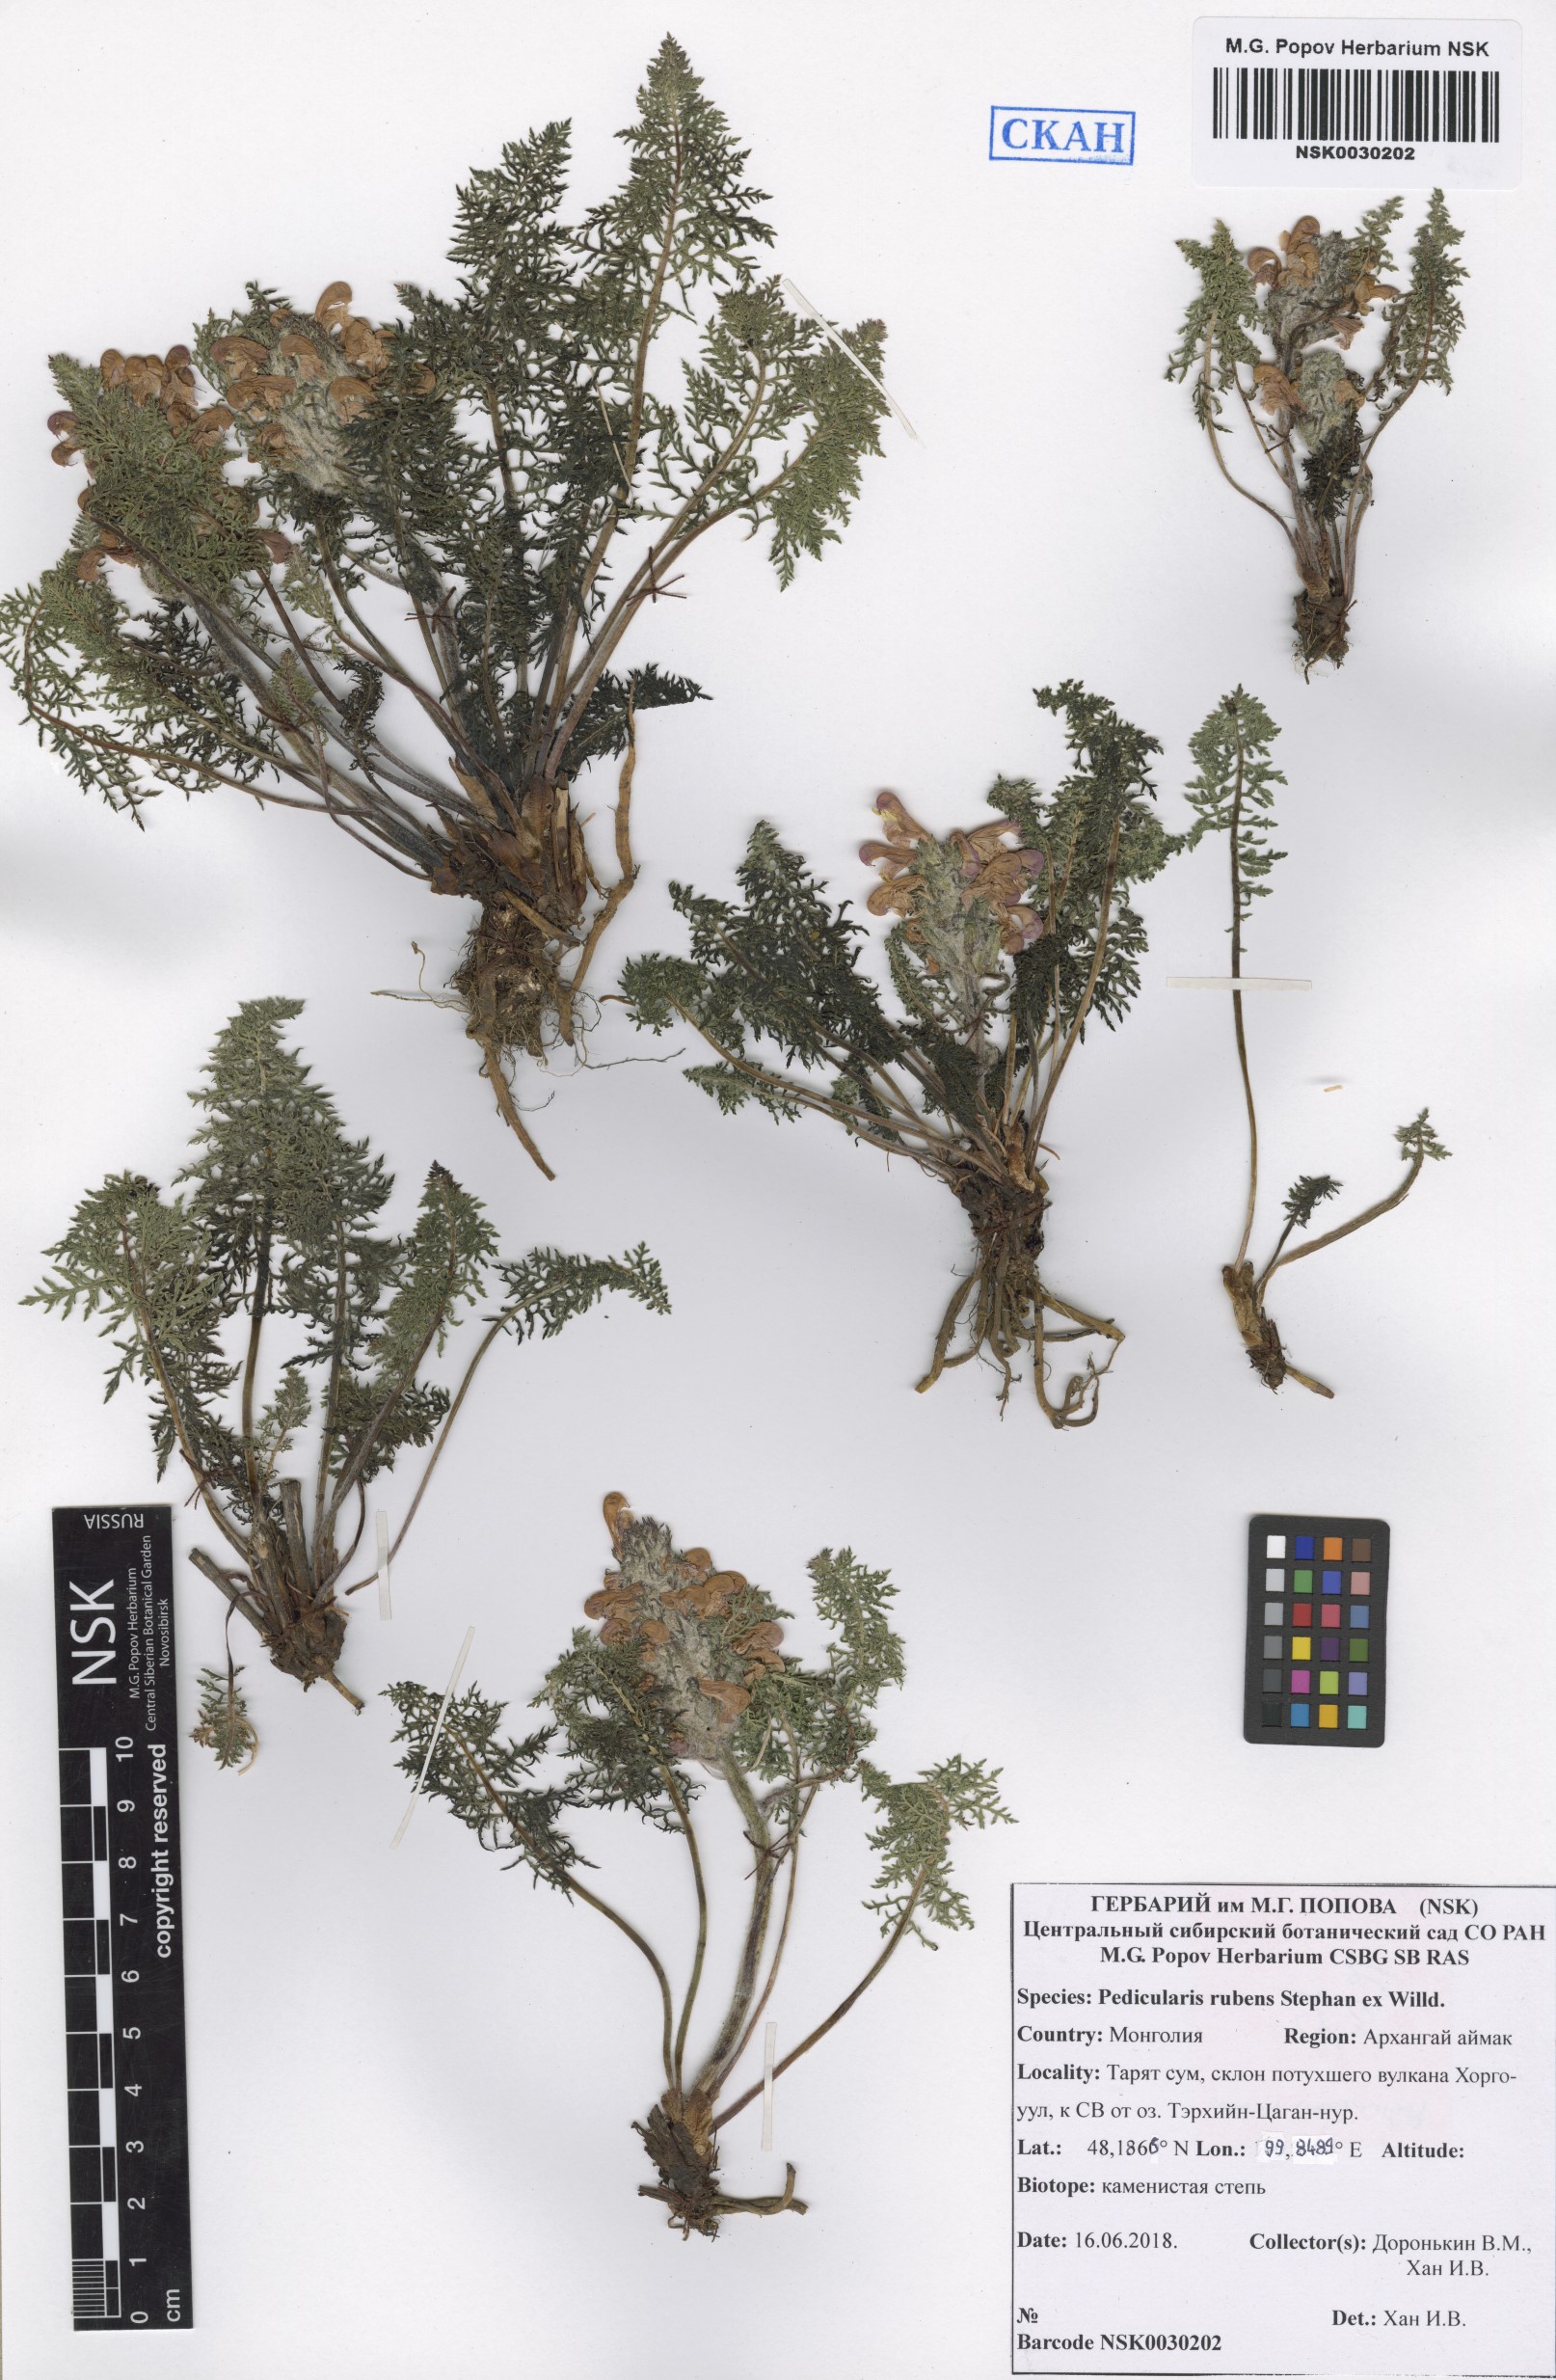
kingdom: Plantae
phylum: Tracheophyta
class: Magnoliopsida
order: Lamiales
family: Orobanchaceae
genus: Pedicularis
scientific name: Pedicularis rubens
